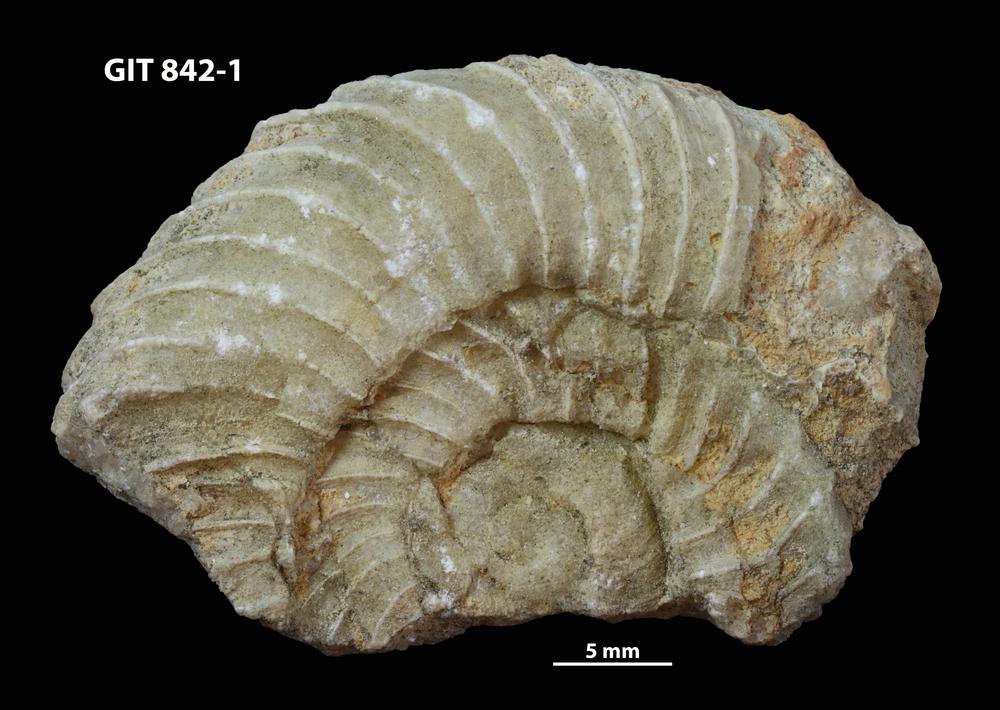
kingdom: Animalia
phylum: Mollusca
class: Cephalopoda
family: Trocholitidae
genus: Discoceras
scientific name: Discoceras
